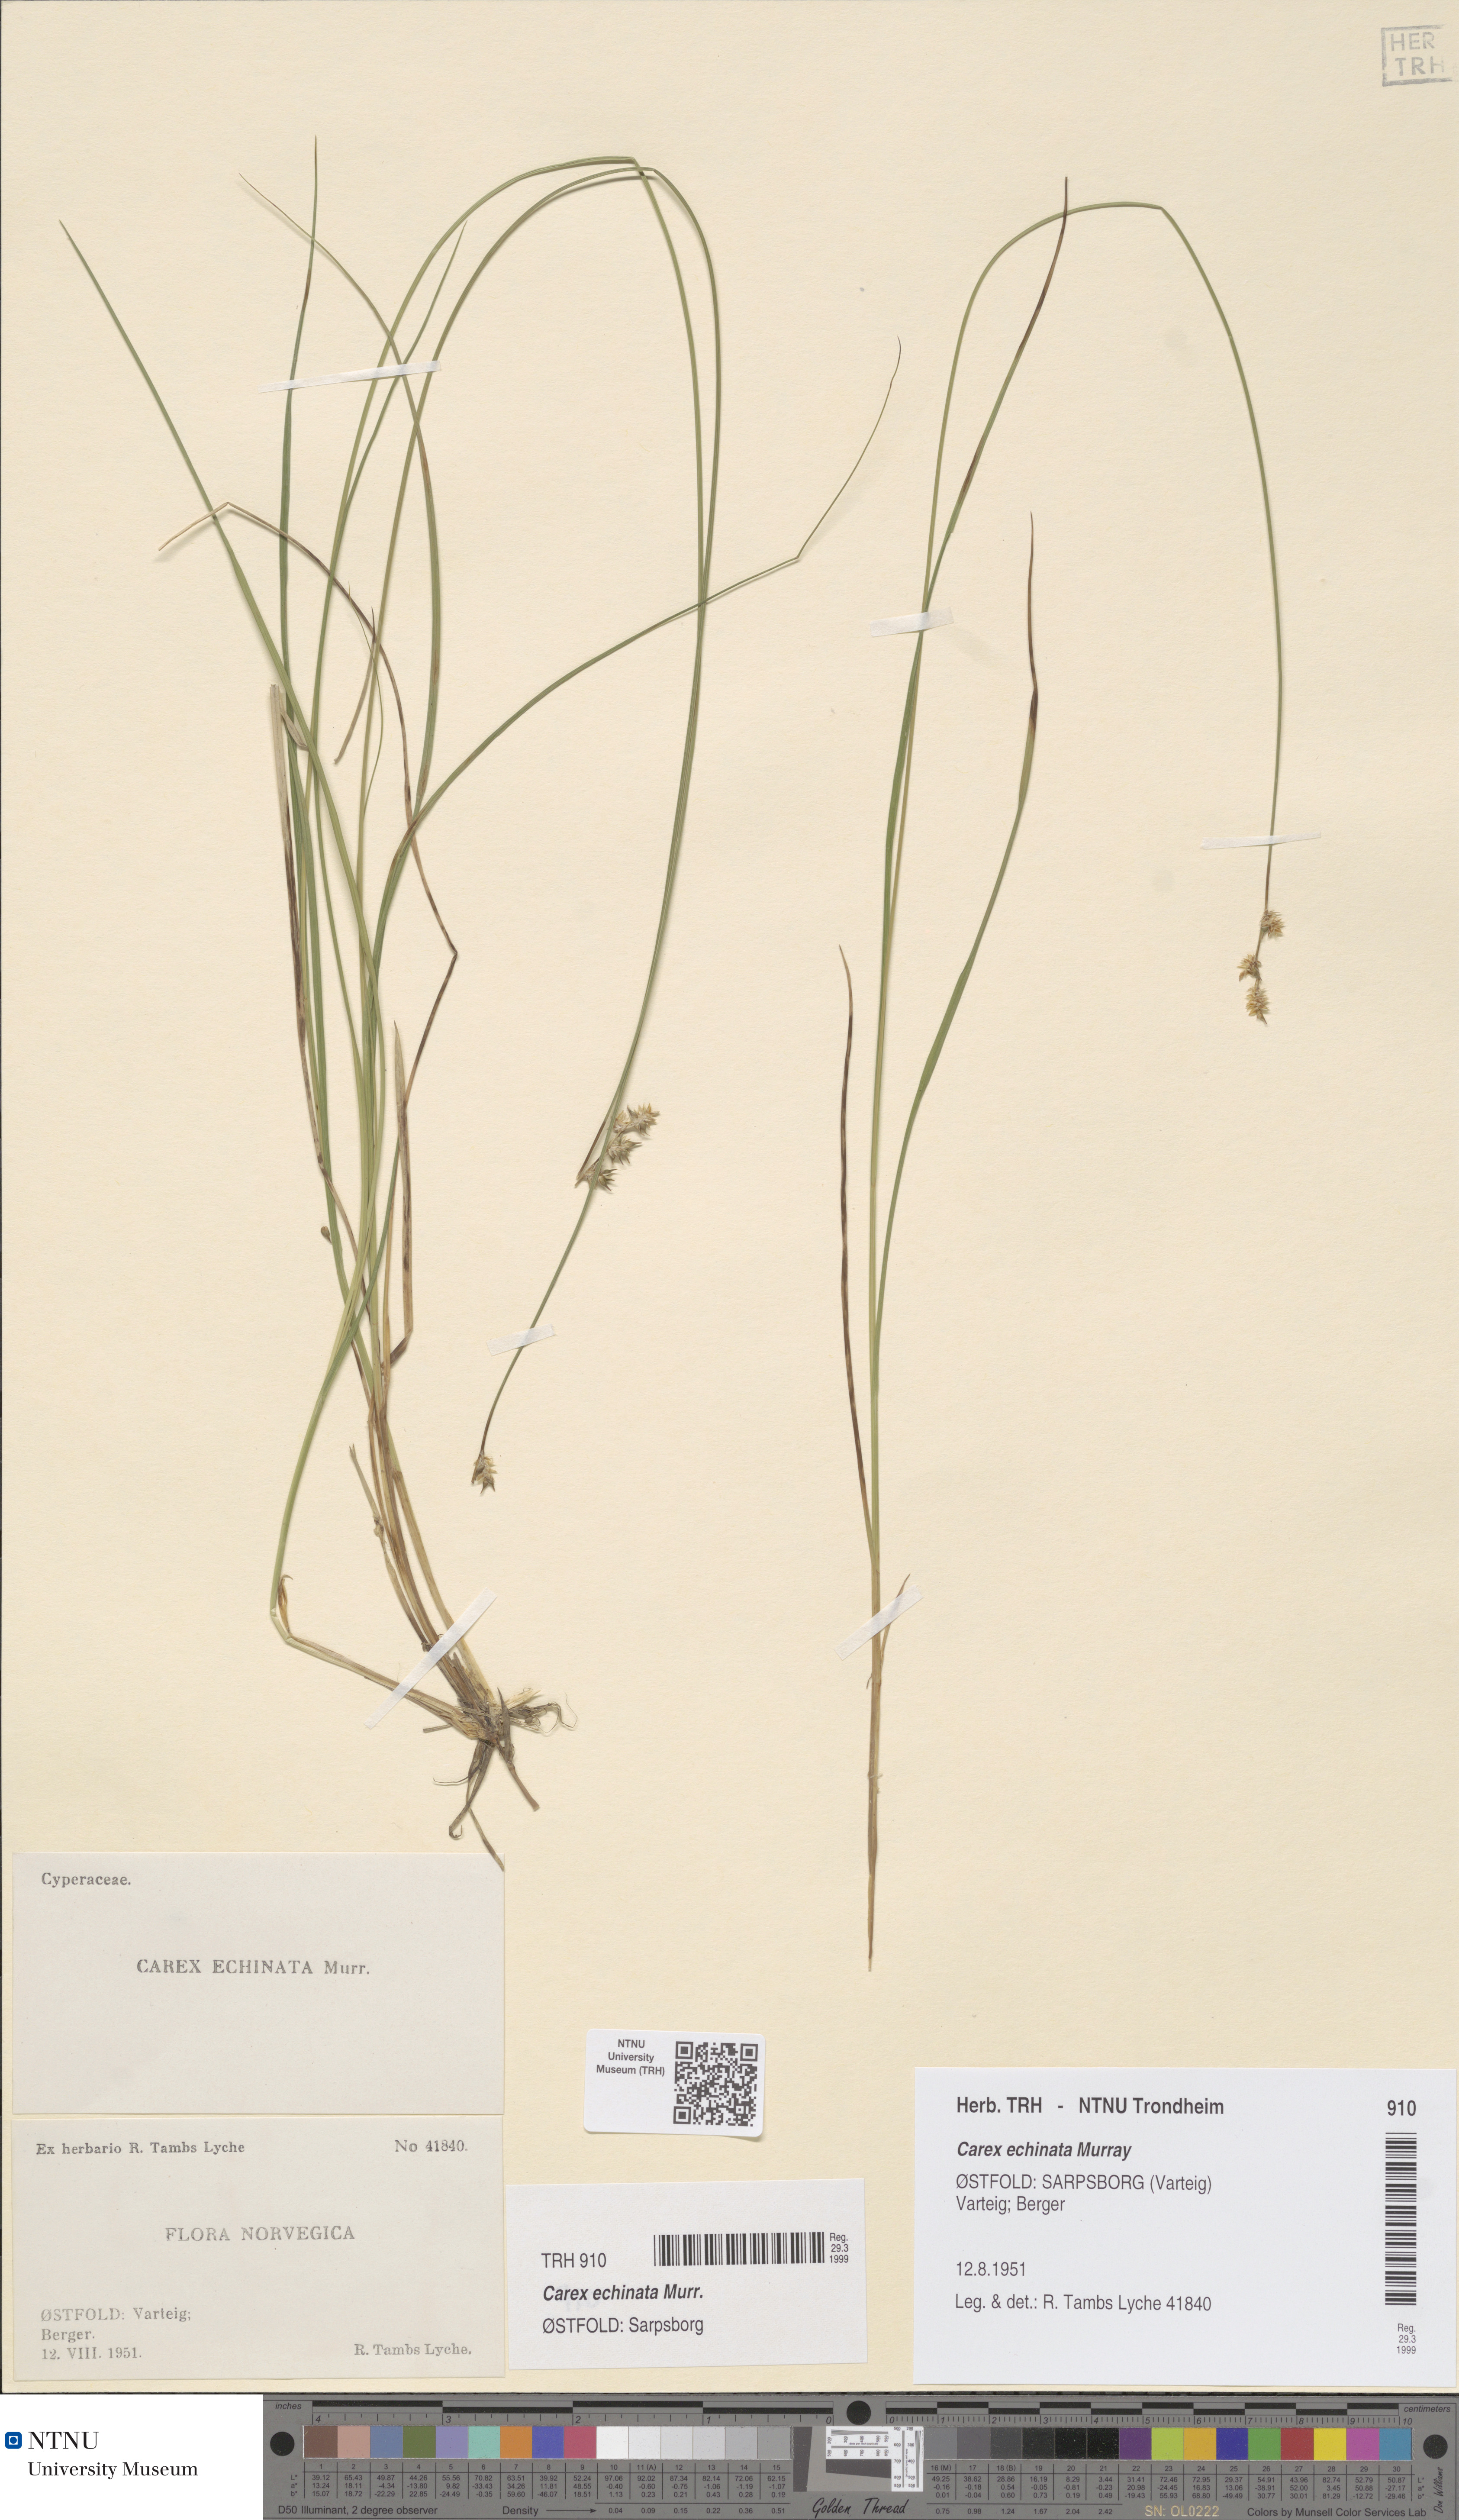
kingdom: Plantae
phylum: Tracheophyta
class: Liliopsida
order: Poales
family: Cyperaceae
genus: Carex
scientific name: Carex echinata
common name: Star sedge
